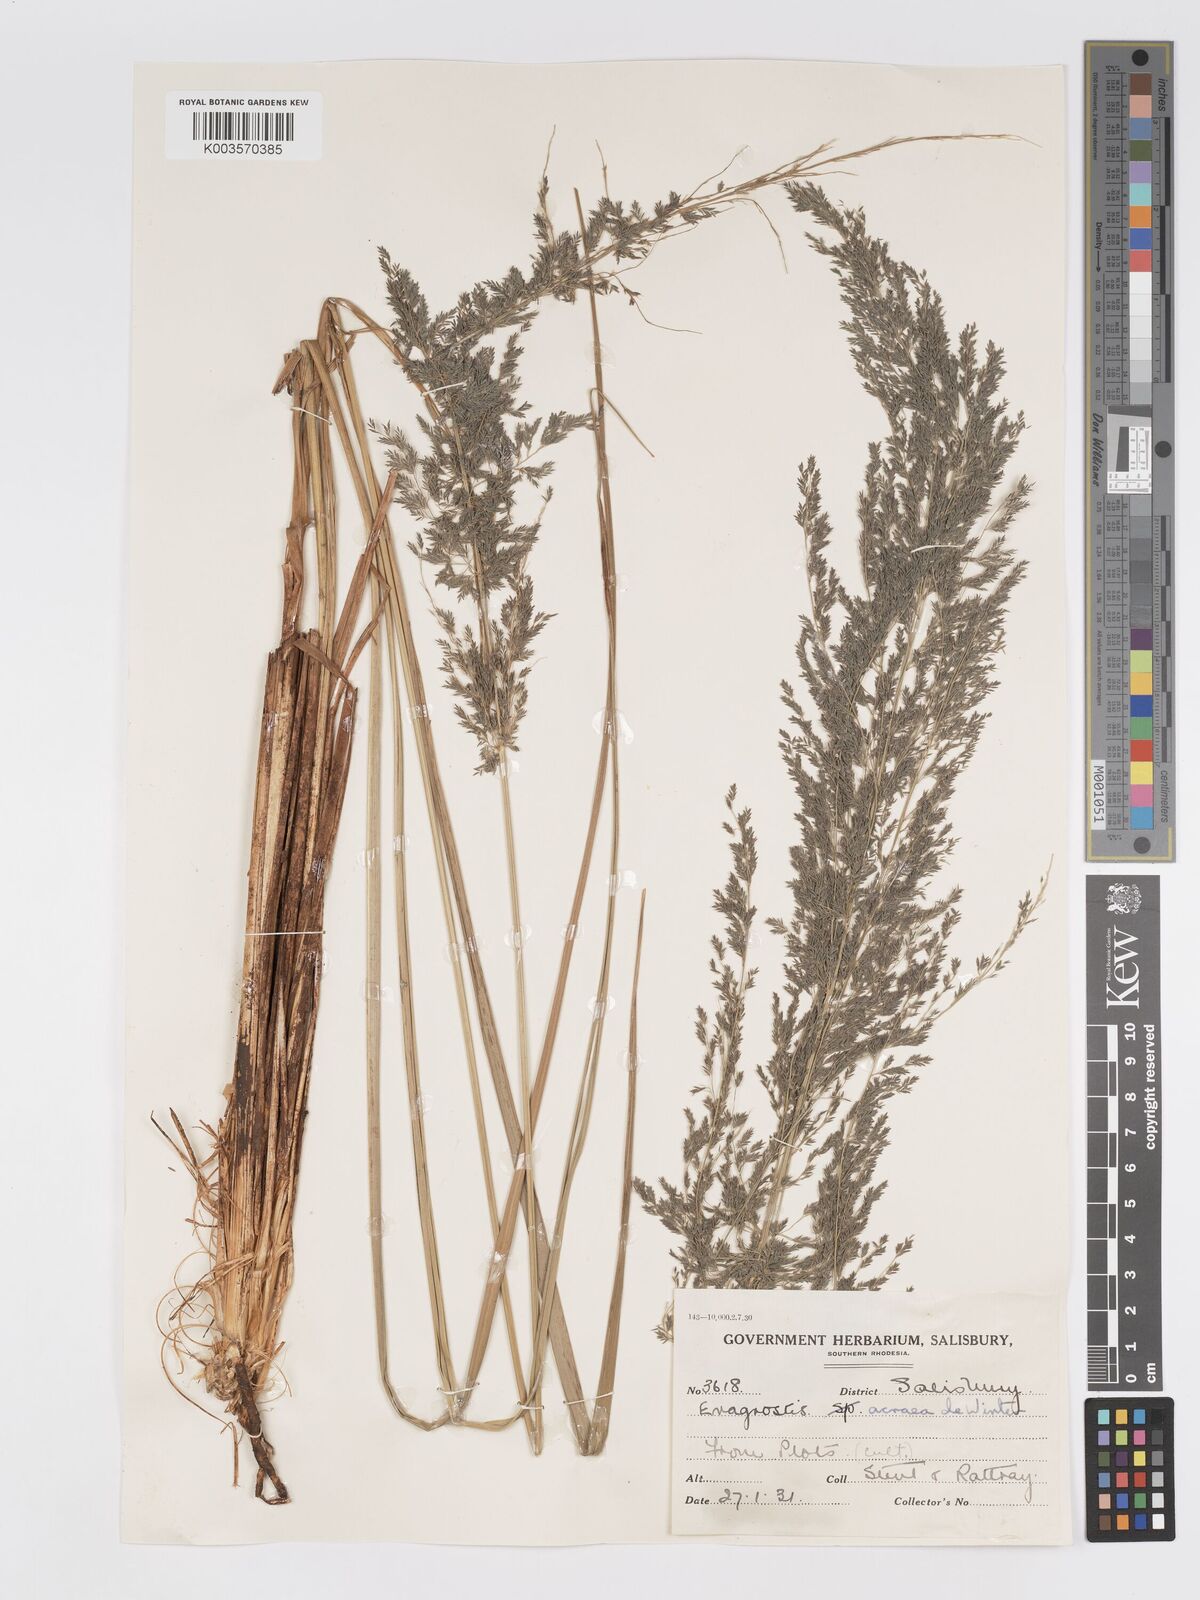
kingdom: Plantae
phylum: Tracheophyta
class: Liliopsida
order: Poales
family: Poaceae
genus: Eragrostis
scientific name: Eragrostis acraea
